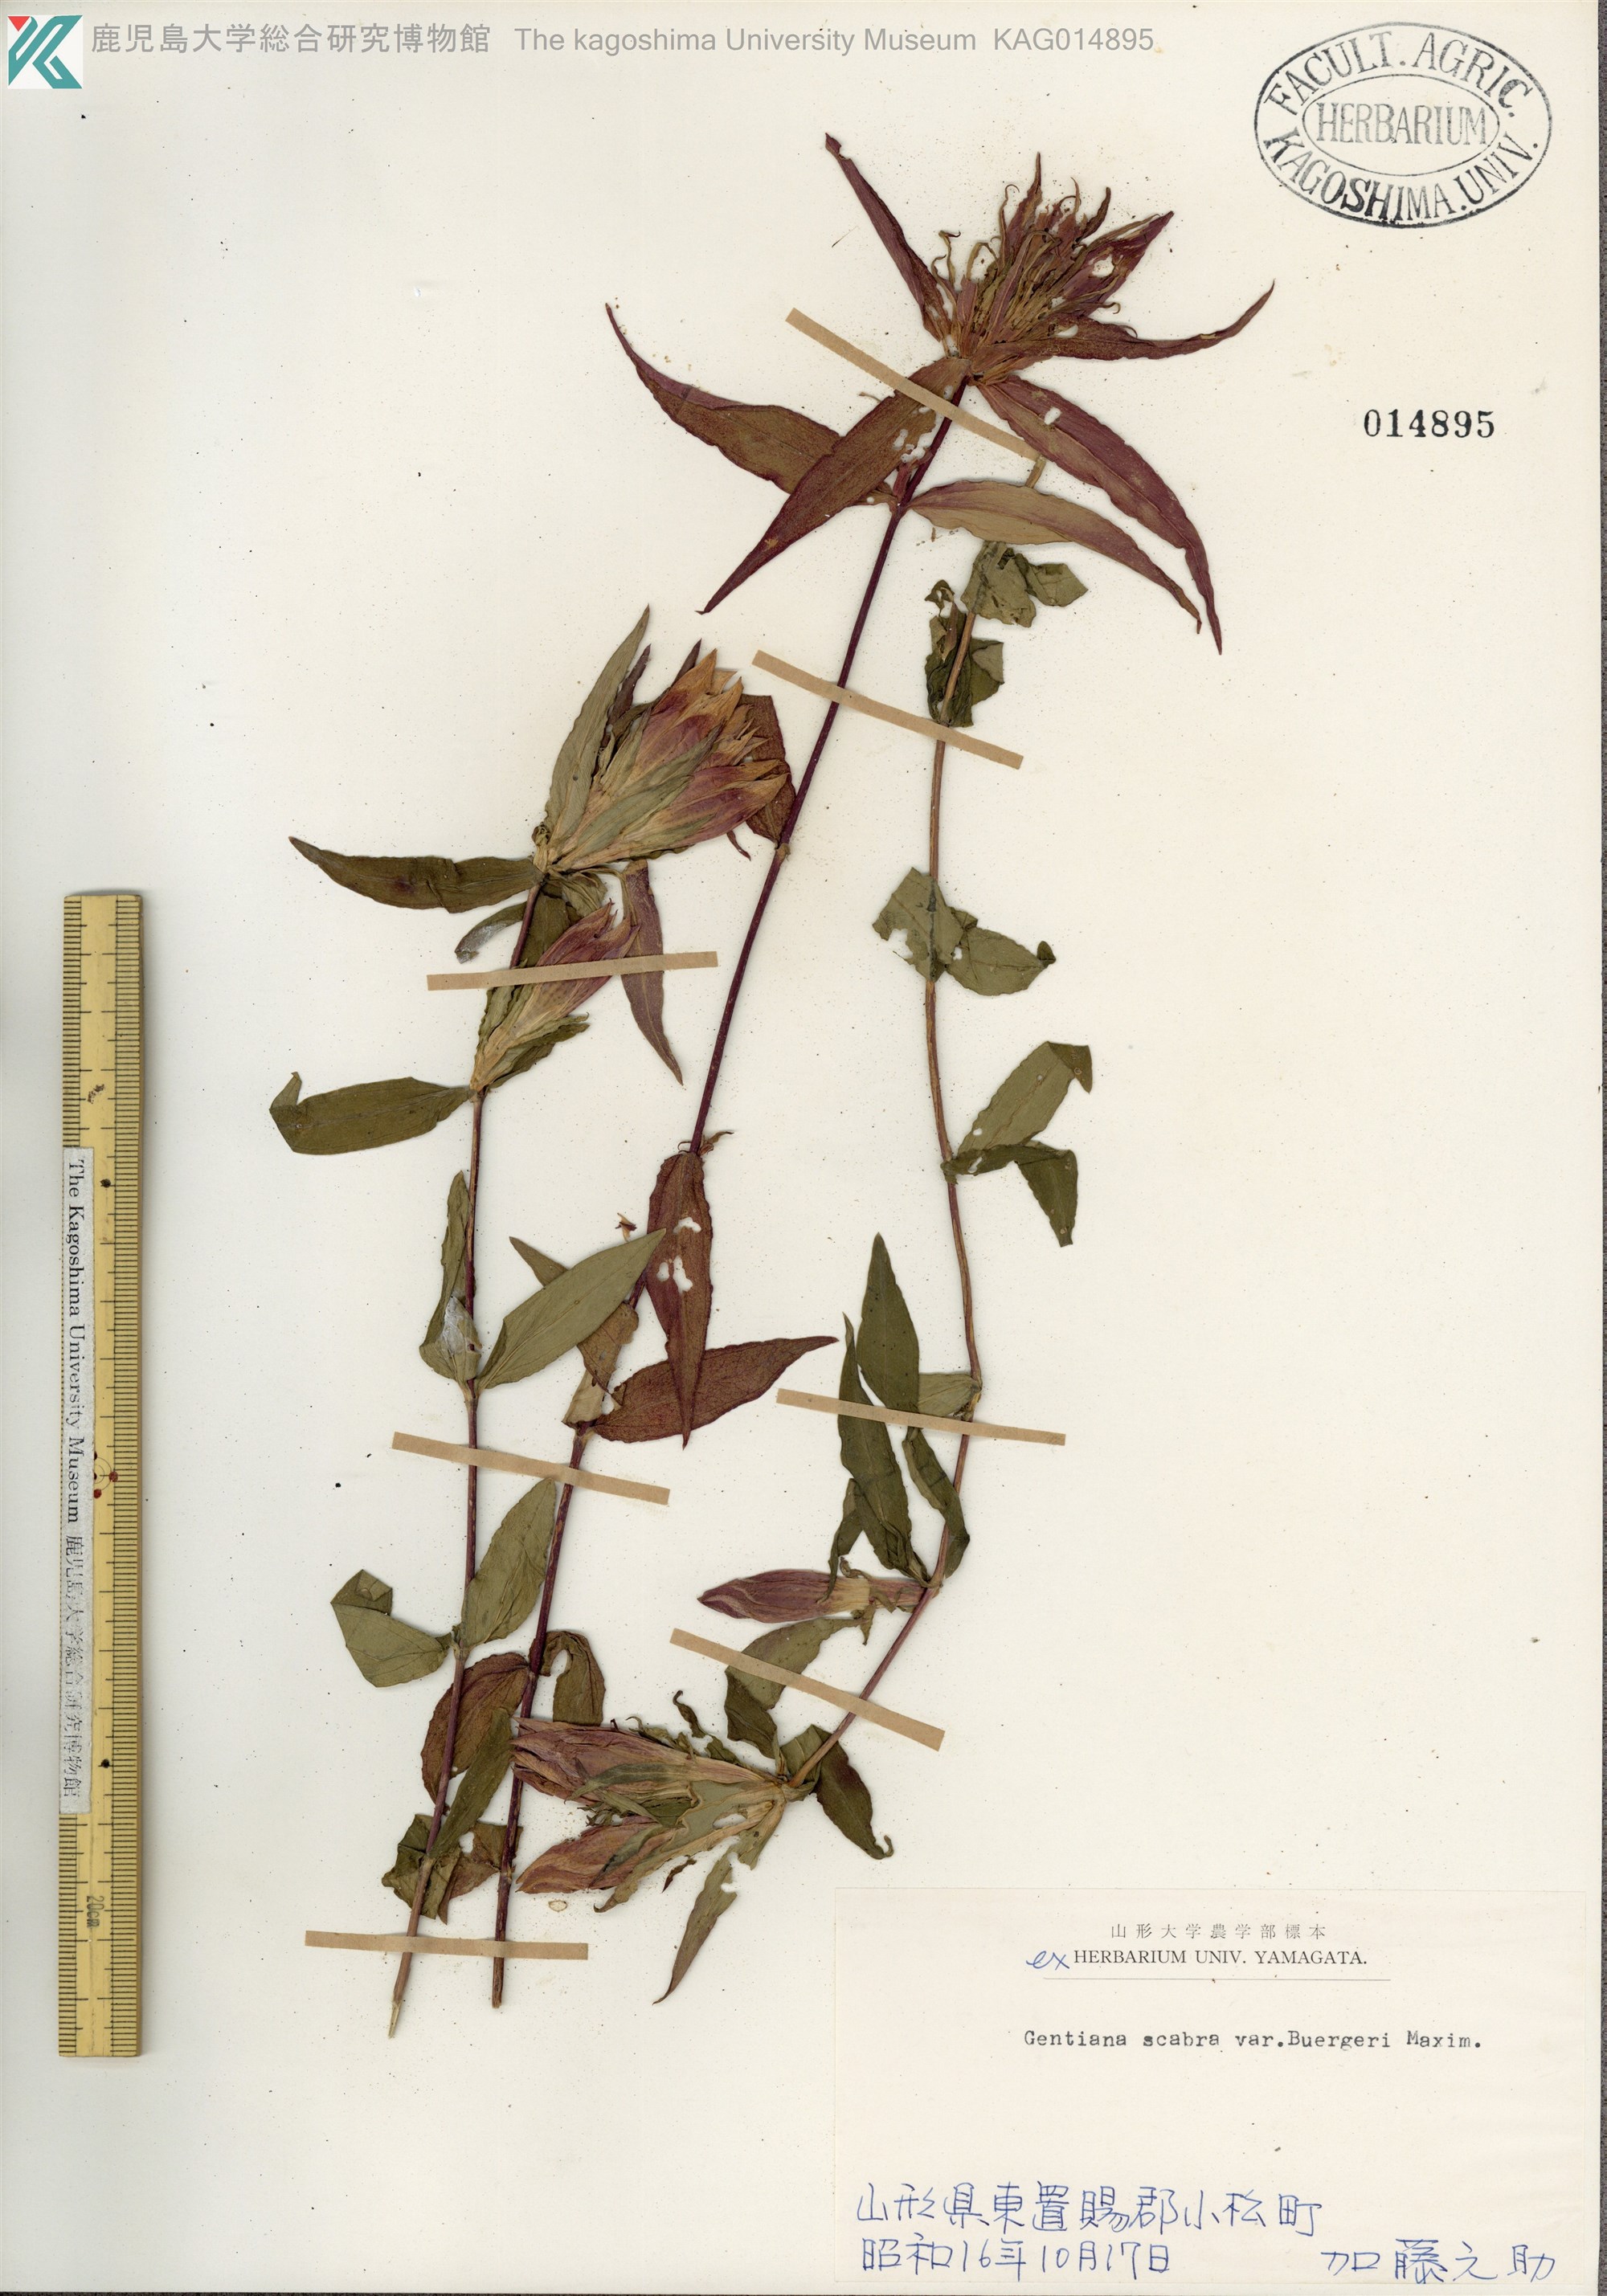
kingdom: Plantae
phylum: Tracheophyta
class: Magnoliopsida
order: Gentianales
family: Gentianaceae
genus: Gentiana
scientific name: Gentiana scabra
